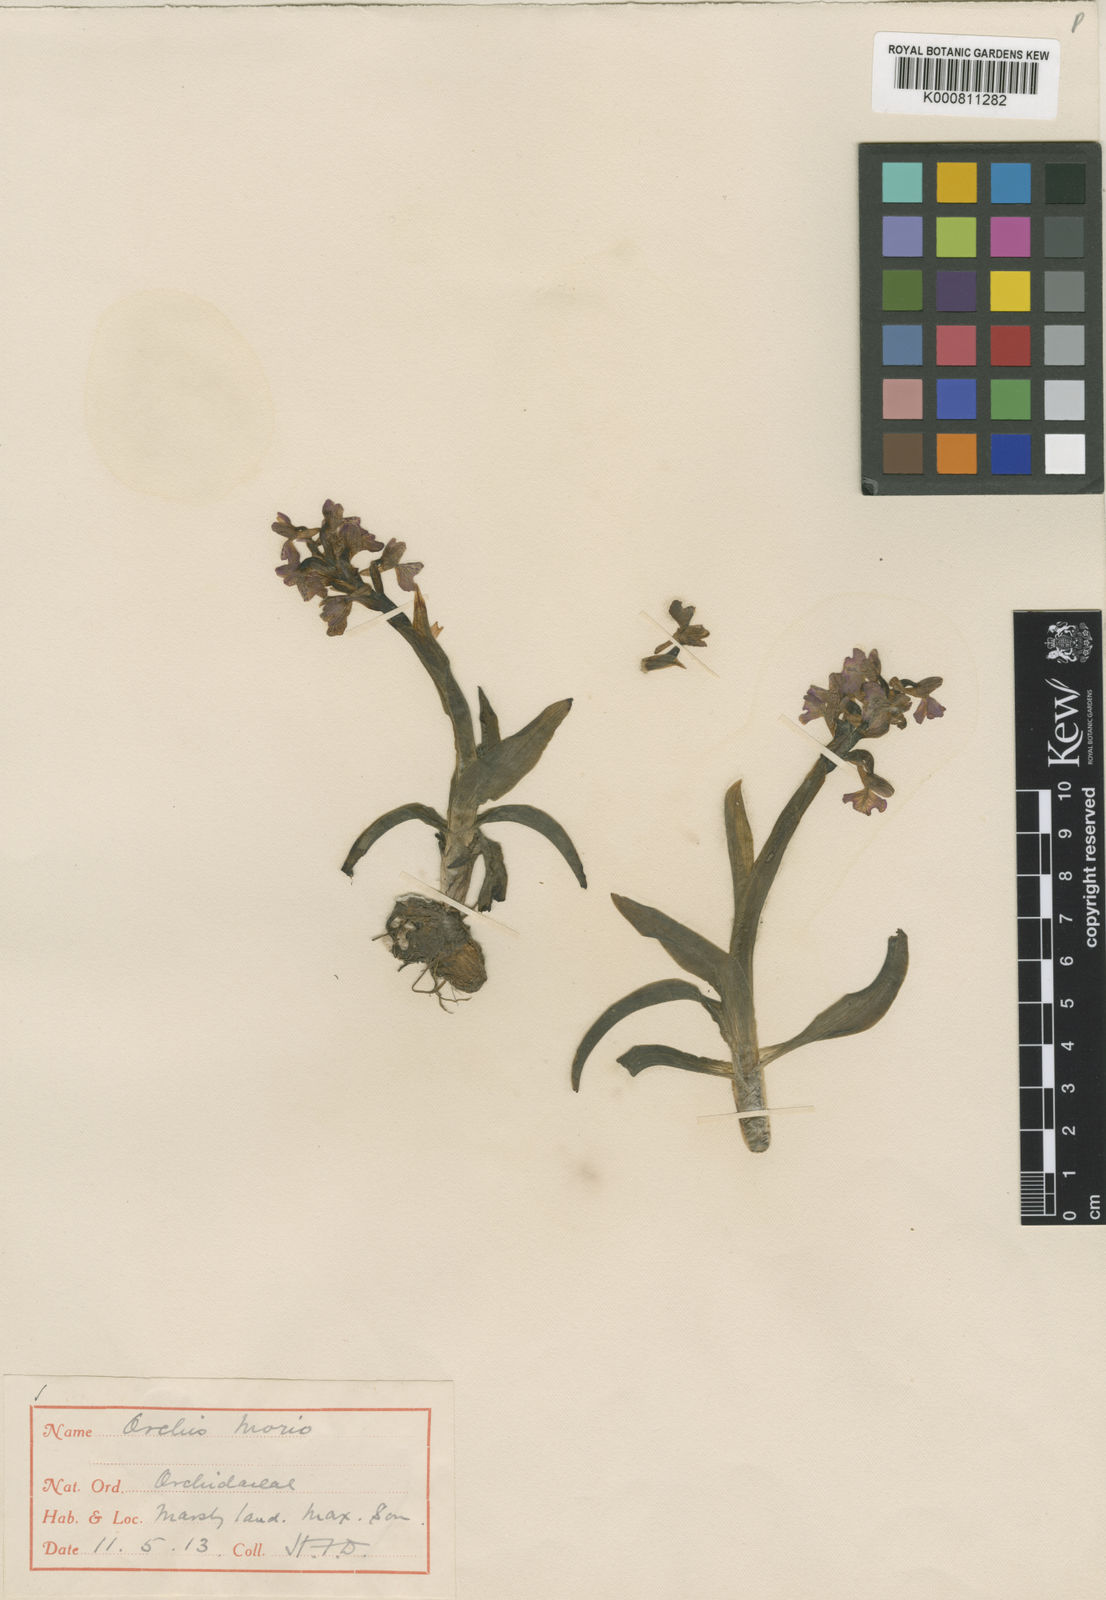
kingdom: Plantae
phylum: Tracheophyta
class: Liliopsida
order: Asparagales
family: Orchidaceae
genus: Anacamptis
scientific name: Anacamptis morio
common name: Green-winged orchid
